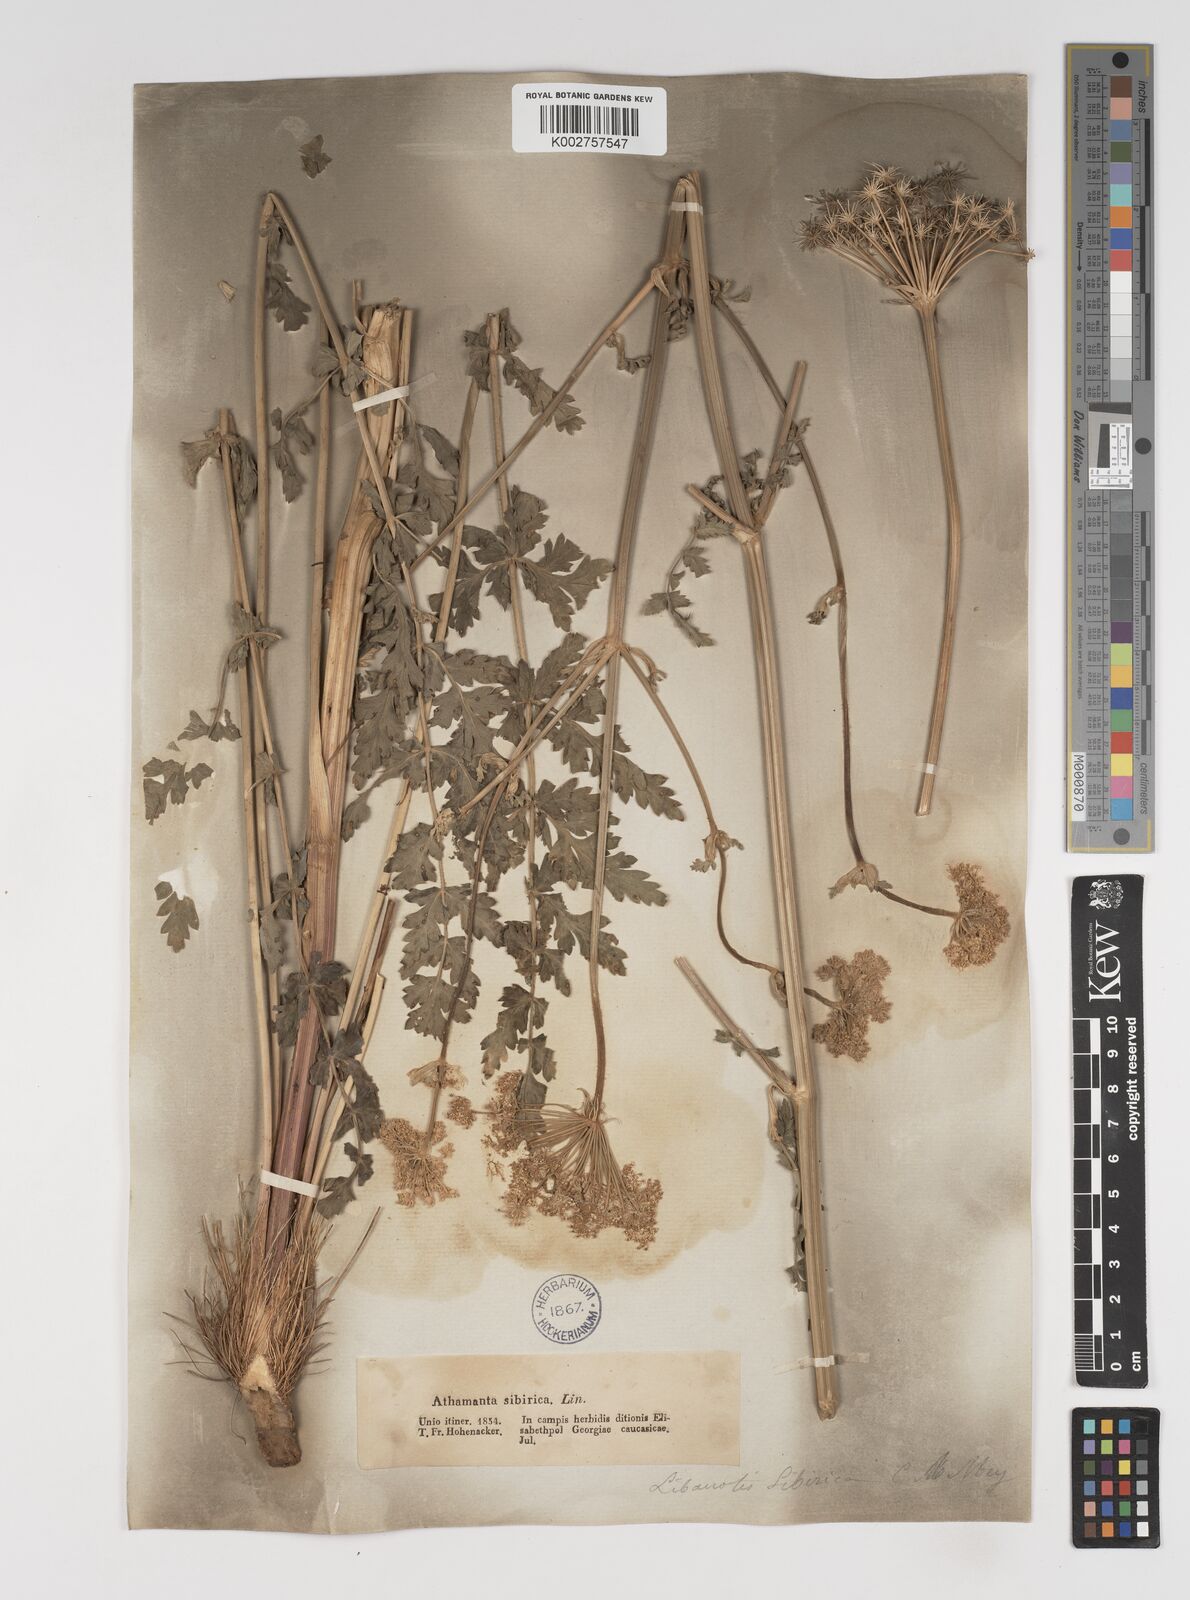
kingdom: Plantae
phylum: Tracheophyta
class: Magnoliopsida
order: Apiales
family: Apiaceae
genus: Seseli
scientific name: Seseli libanotis
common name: Mooncarrot
